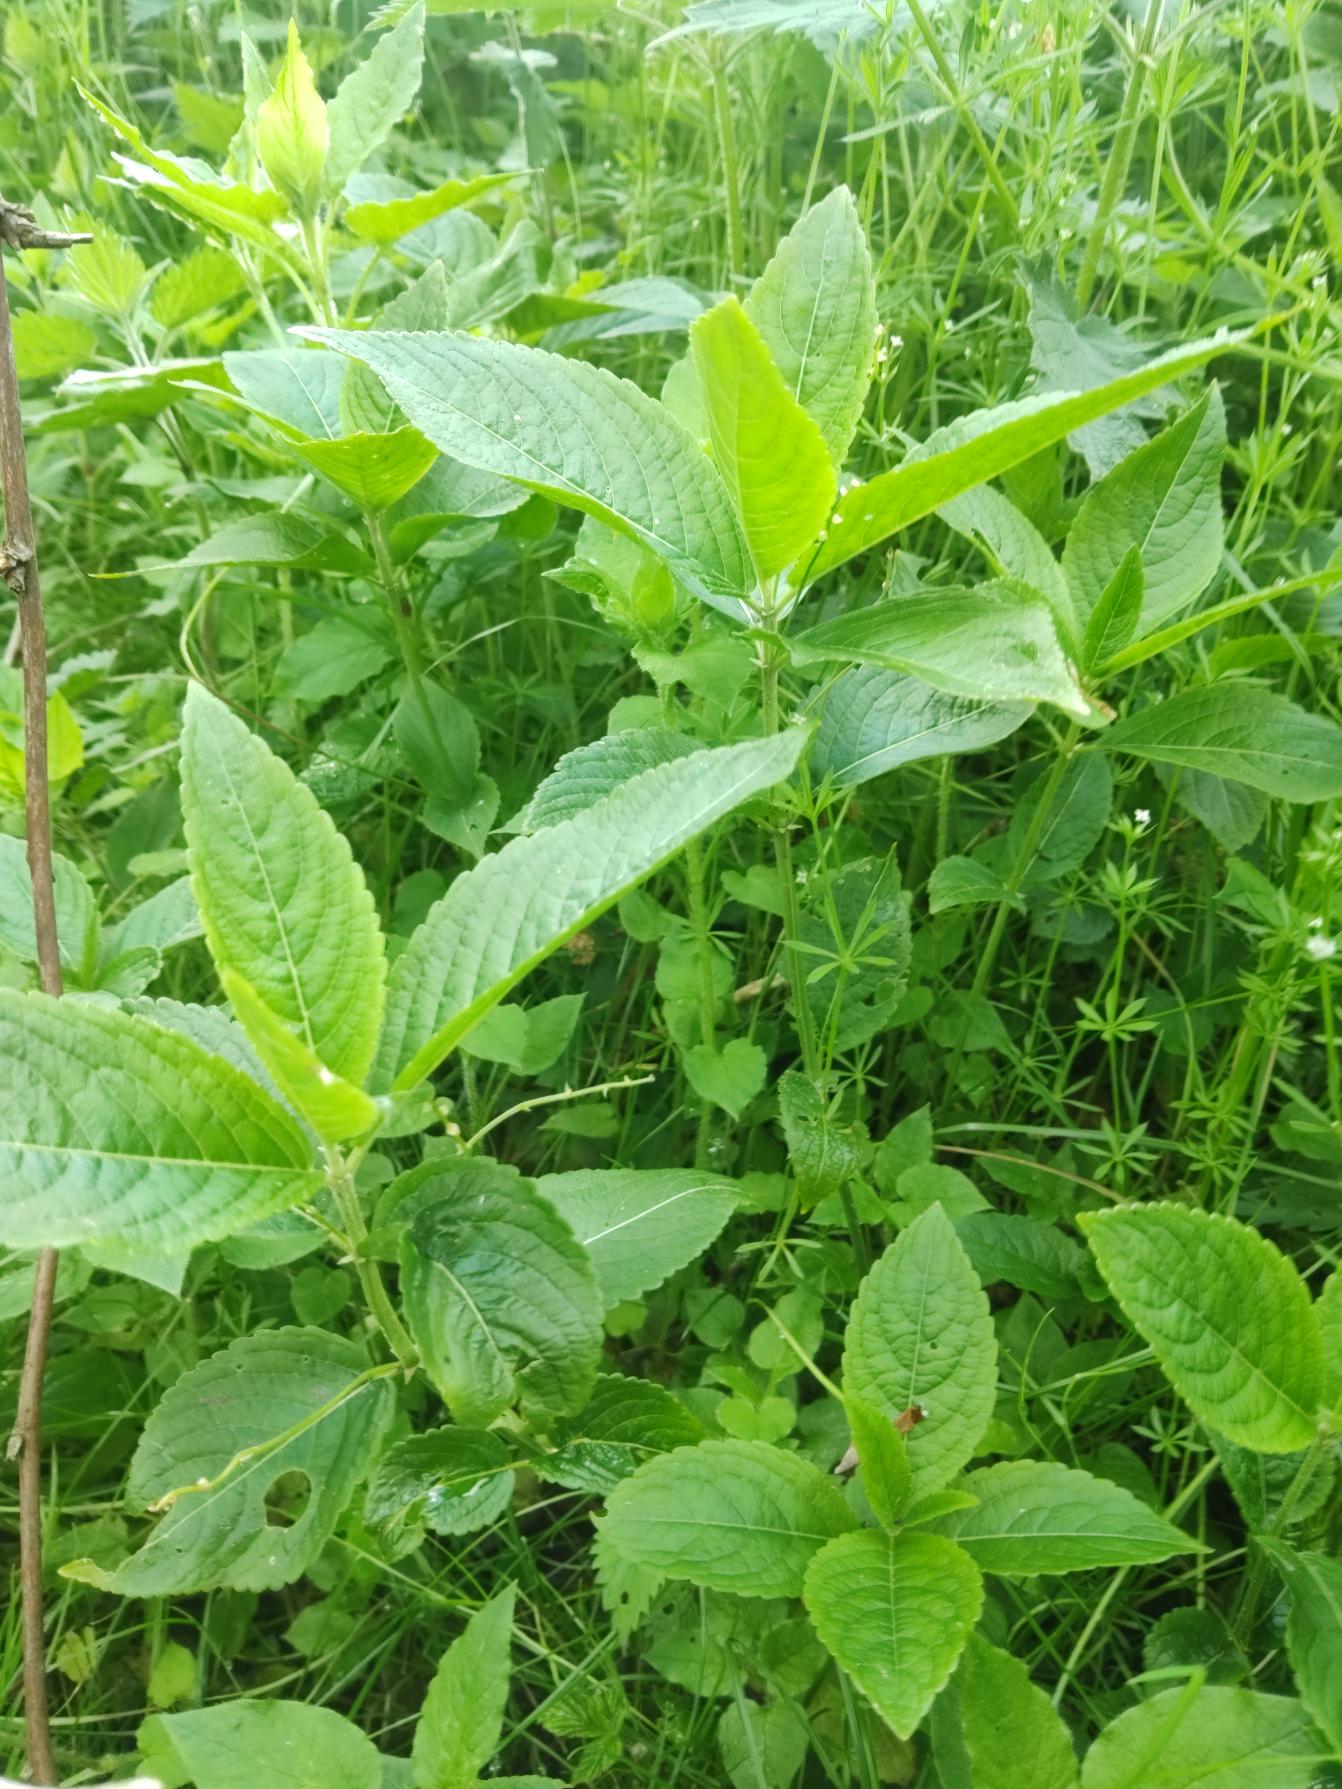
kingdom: Plantae
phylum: Tracheophyta
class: Magnoliopsida
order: Malpighiales
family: Euphorbiaceae
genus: Mercurialis
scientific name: Mercurialis perennis
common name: Almindelig bingelurt
